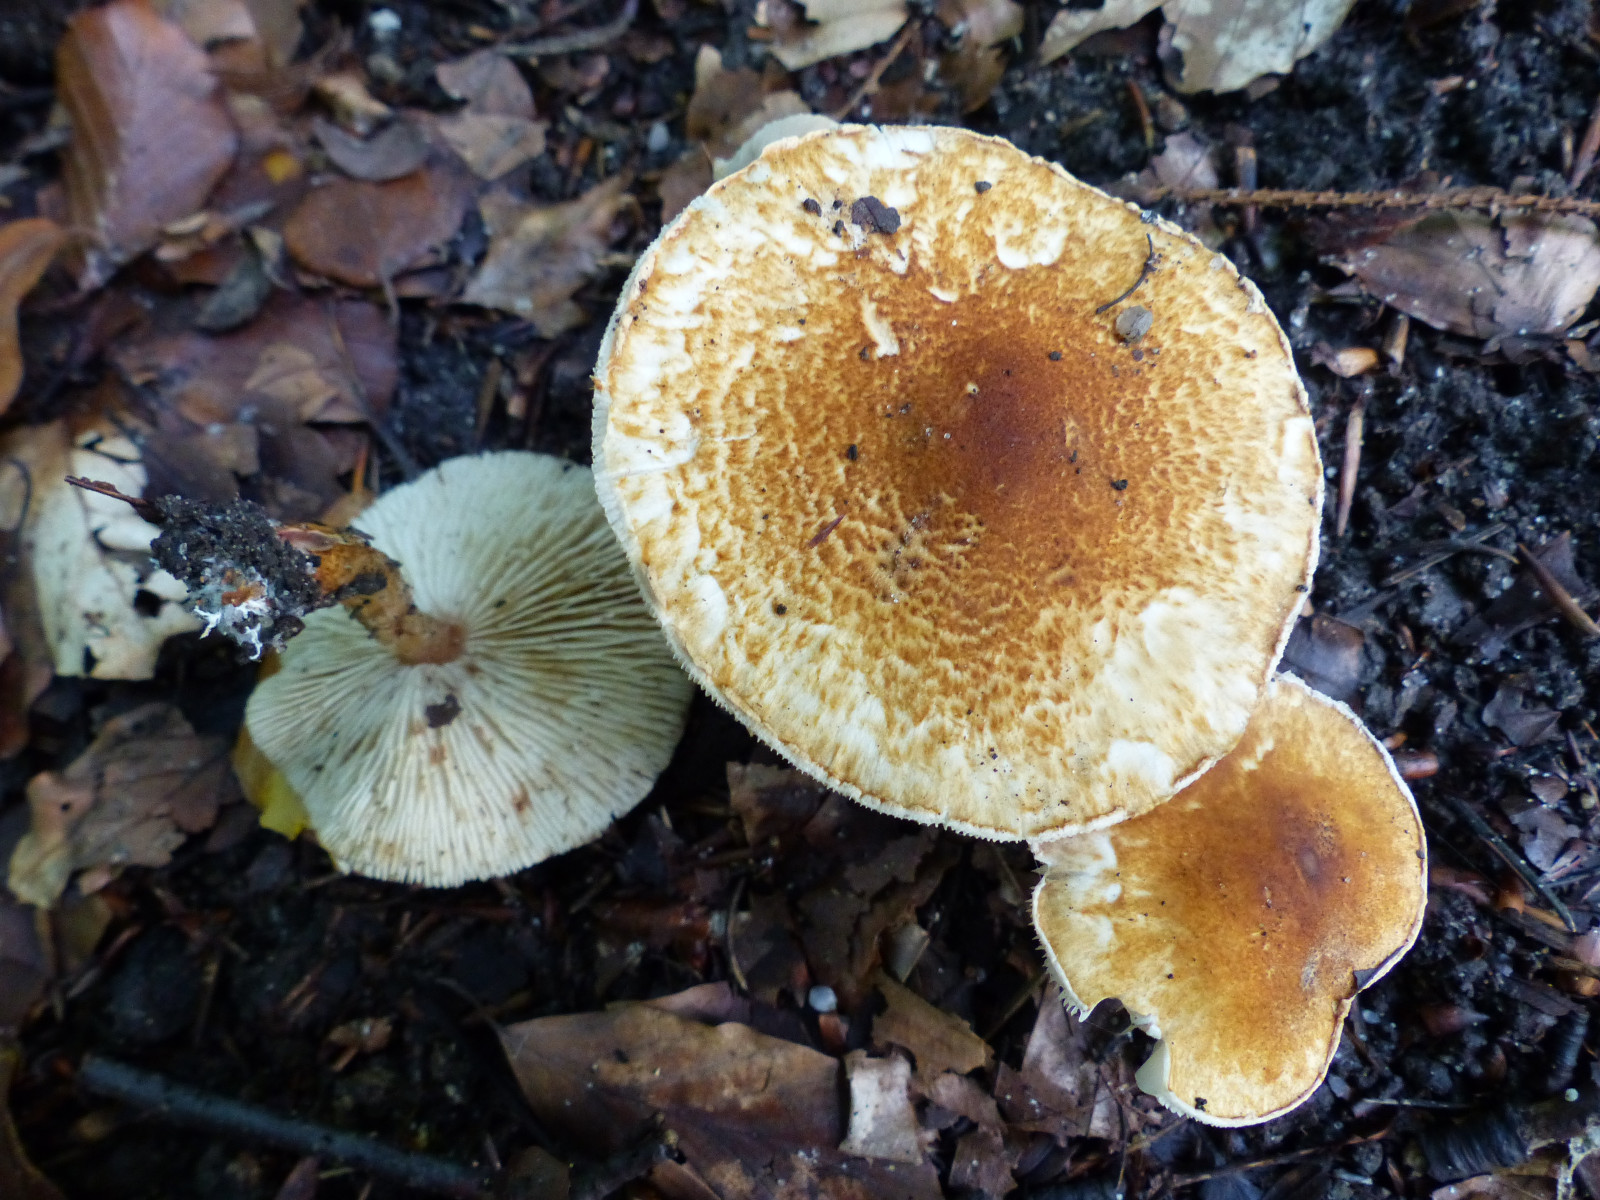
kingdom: Fungi
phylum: Basidiomycota
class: Agaricomycetes
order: Agaricales
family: Agaricaceae
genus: Leucocoprinus
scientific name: Leucocoprinus straminellus
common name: rustbrun parasolhat
